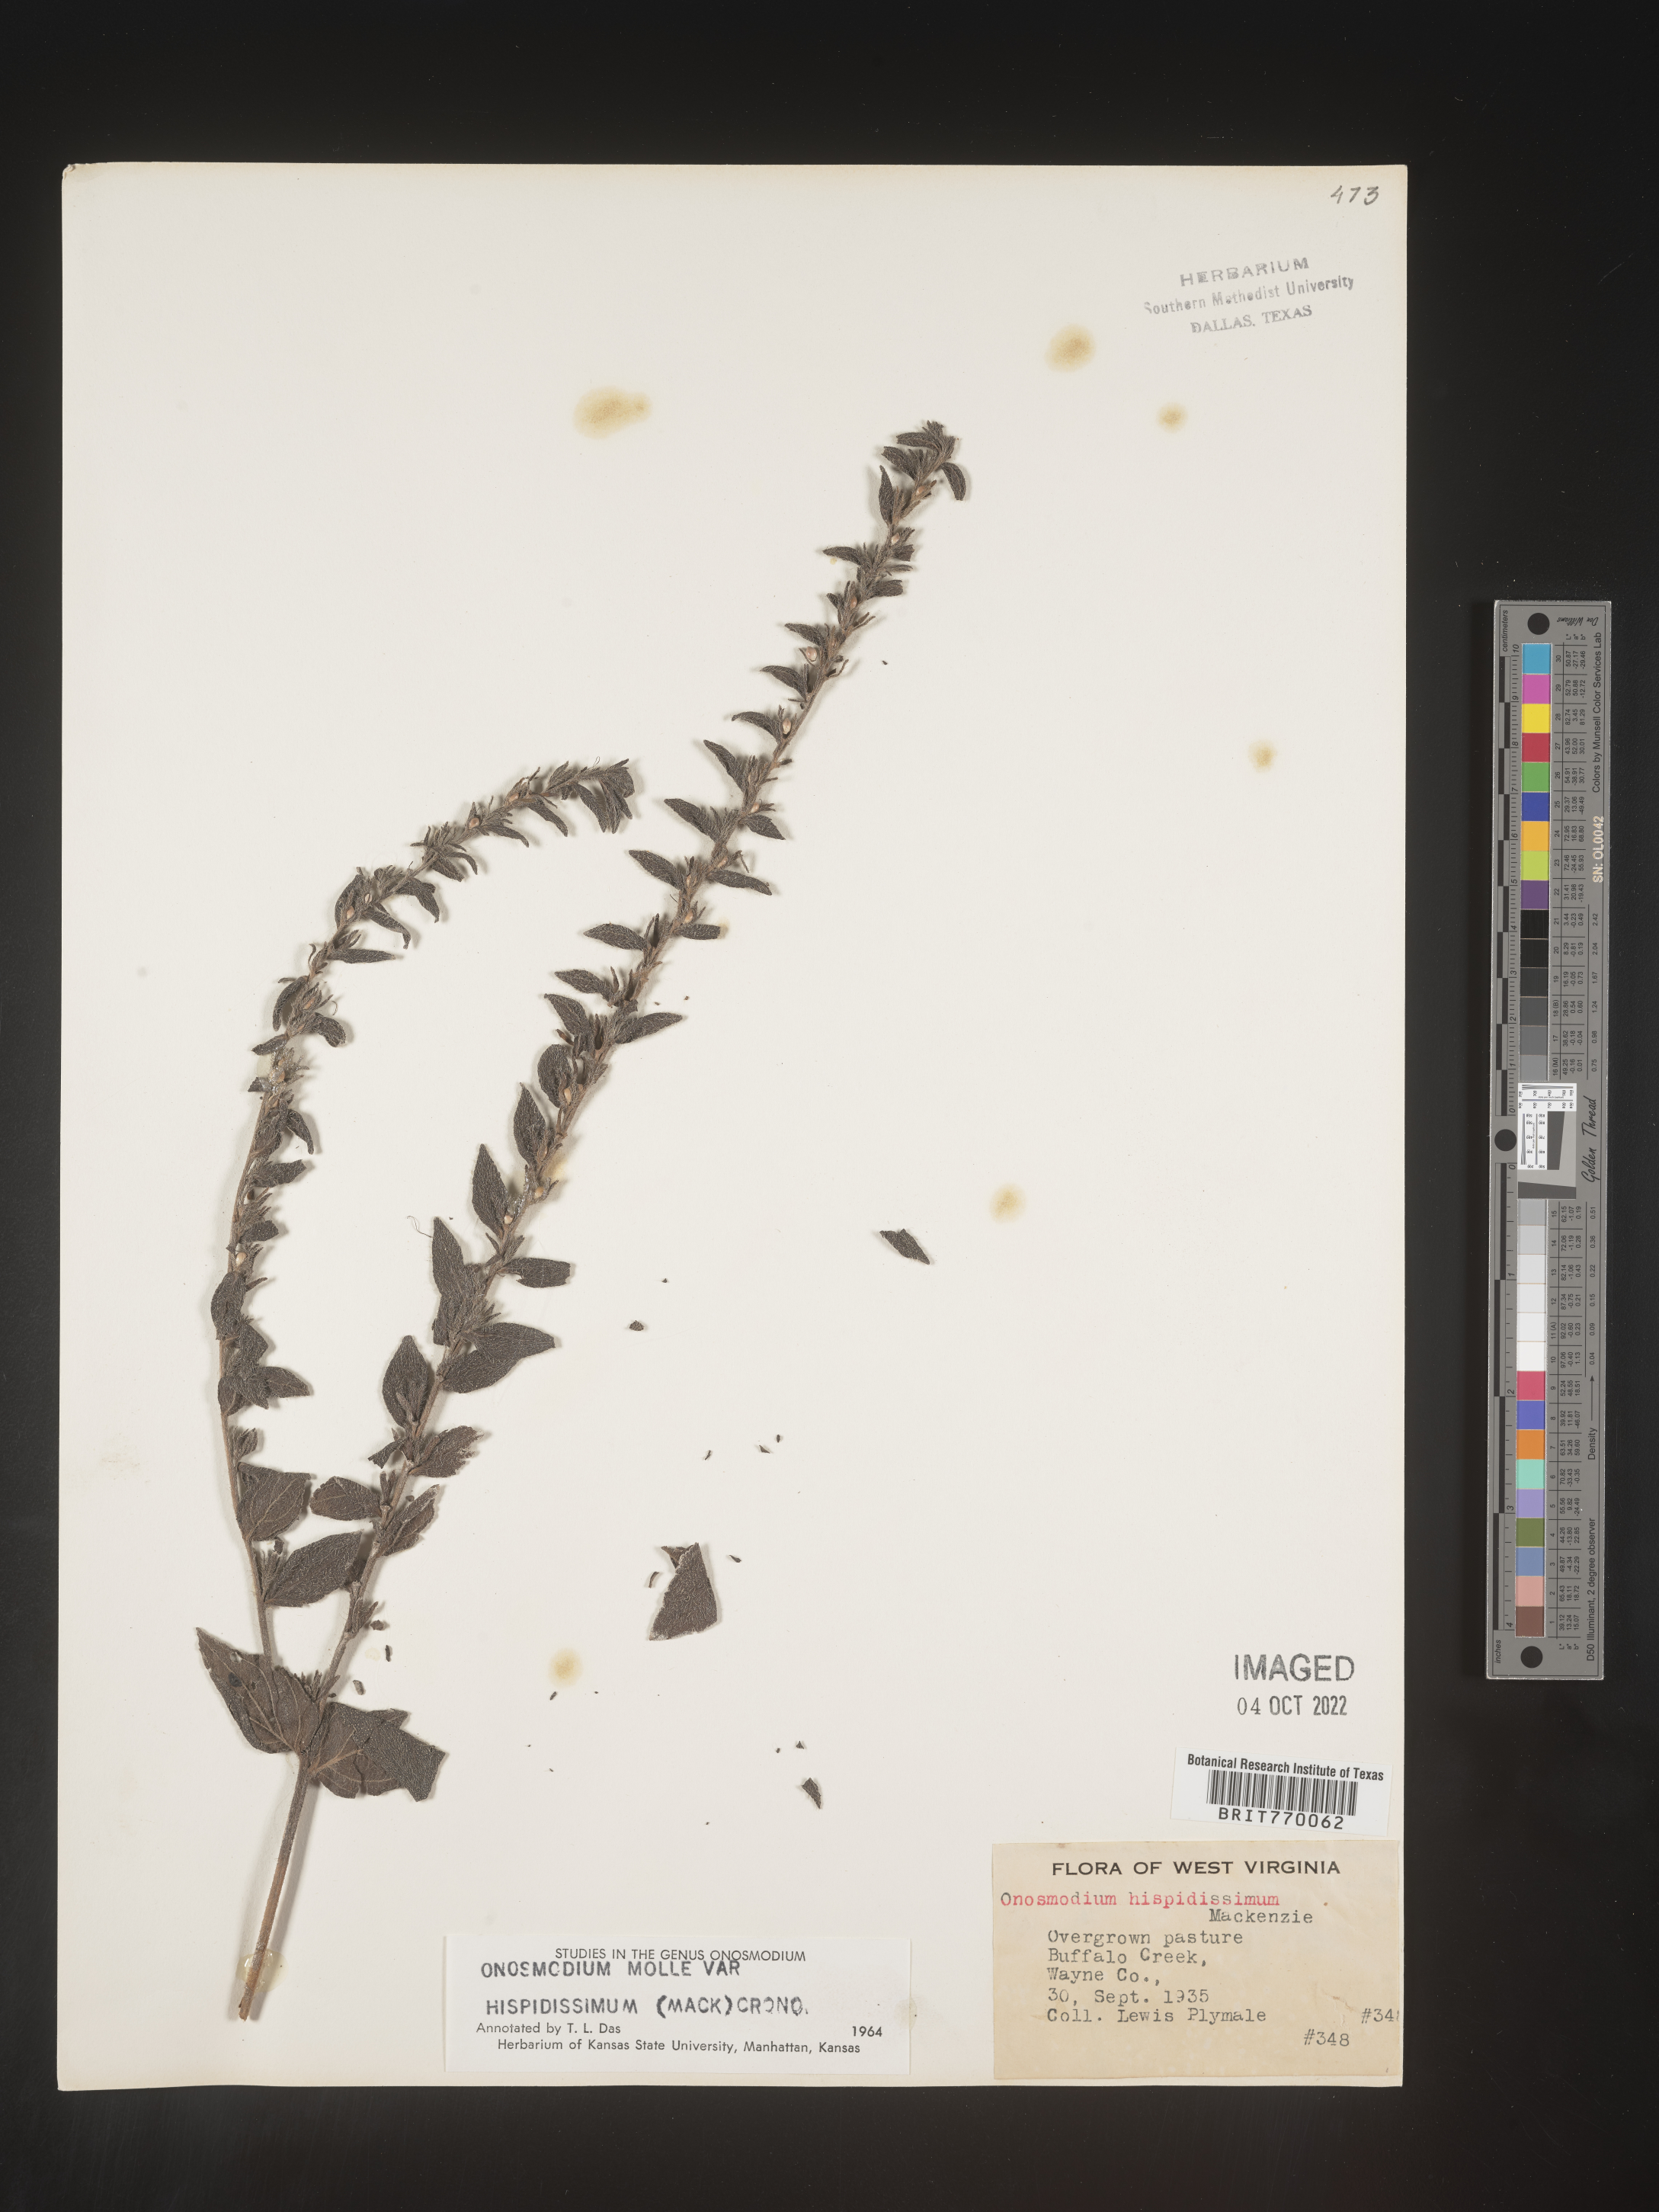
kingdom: Plantae
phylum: Tracheophyta
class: Magnoliopsida
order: Boraginales
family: Boraginaceae
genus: Lithospermum
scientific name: Lithospermum parviflorum
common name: Hairy false gromwell
